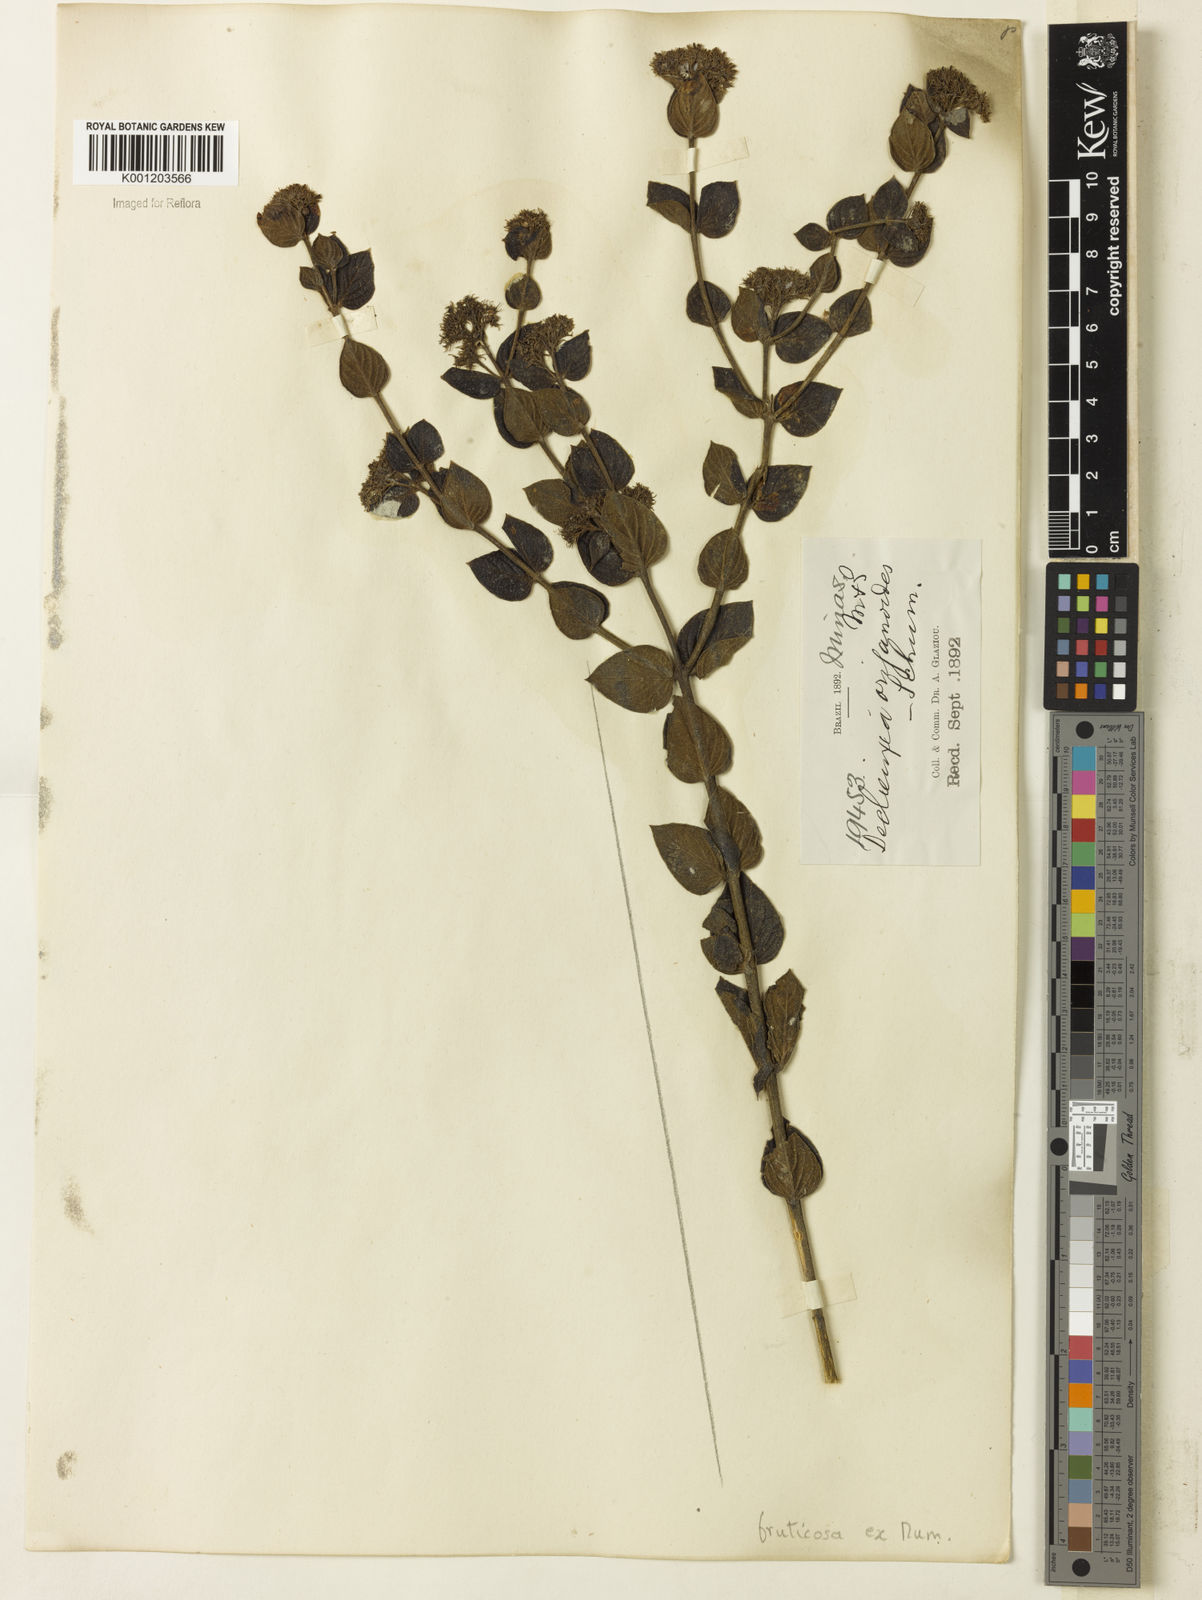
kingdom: Plantae
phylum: Tracheophyta
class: Magnoliopsida
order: Gentianales
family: Rubiaceae
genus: Declieuxia
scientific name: Declieuxia fruticosa
